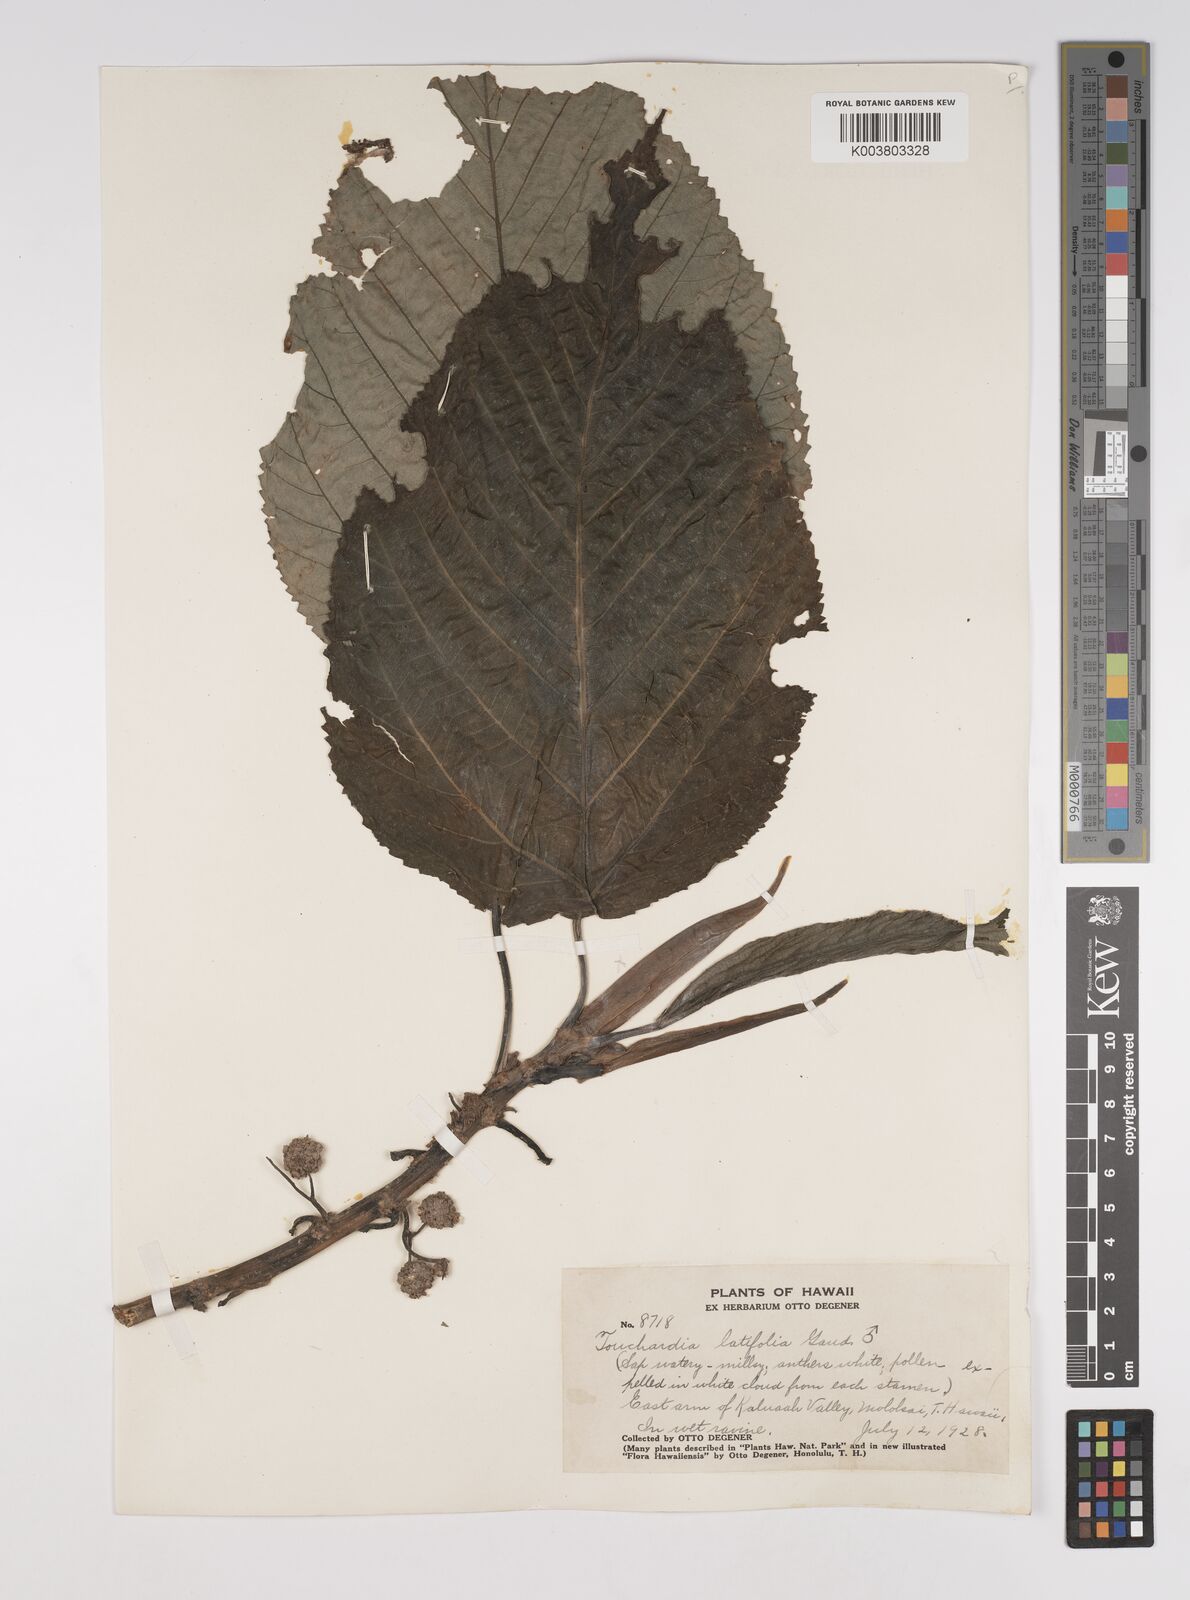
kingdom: Plantae
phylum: Tracheophyta
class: Magnoliopsida
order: Rosales
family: Urticaceae
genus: Touchardia
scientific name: Touchardia latifolia
